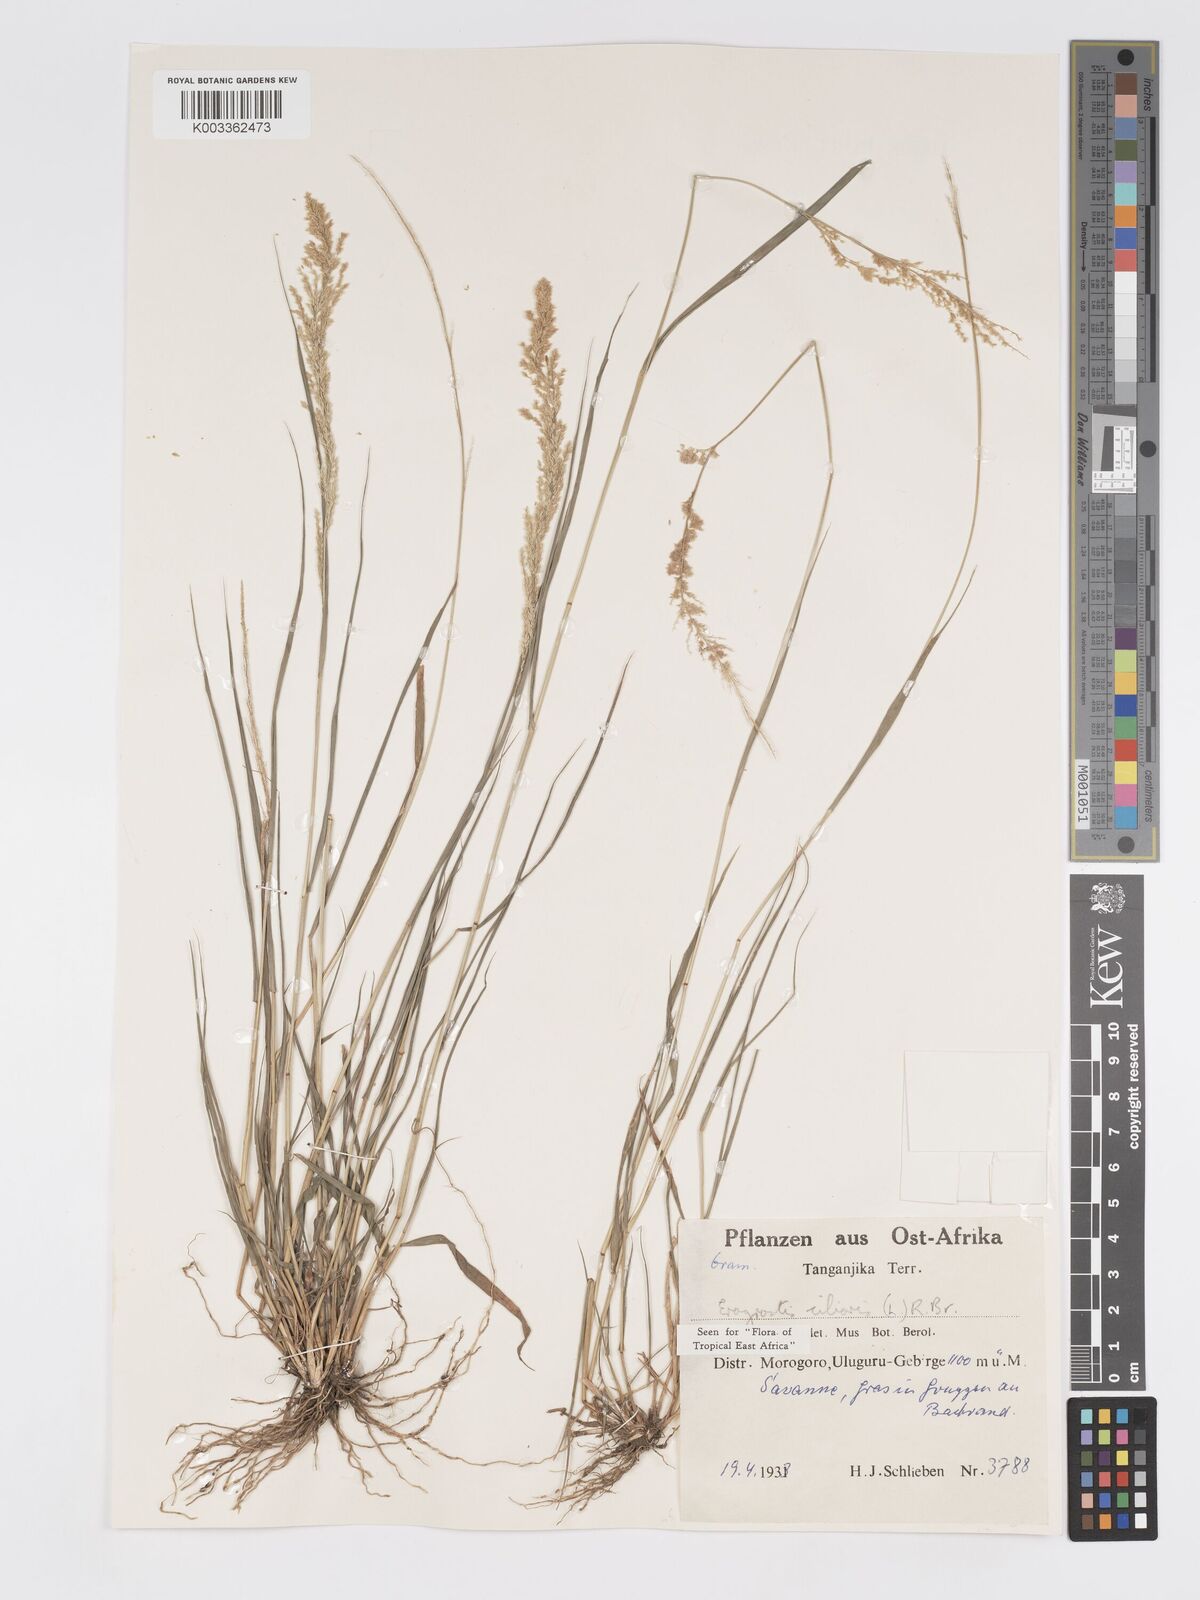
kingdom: Plantae
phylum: Tracheophyta
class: Liliopsida
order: Poales
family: Poaceae
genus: Eragrostis
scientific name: Eragrostis ciliaris
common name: Gophertail lovegrass
